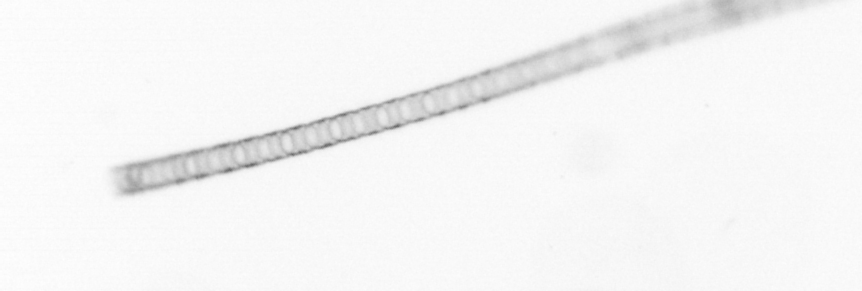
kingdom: Chromista
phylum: Ochrophyta
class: Bacillariophyceae
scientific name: Bacillariophyceae
